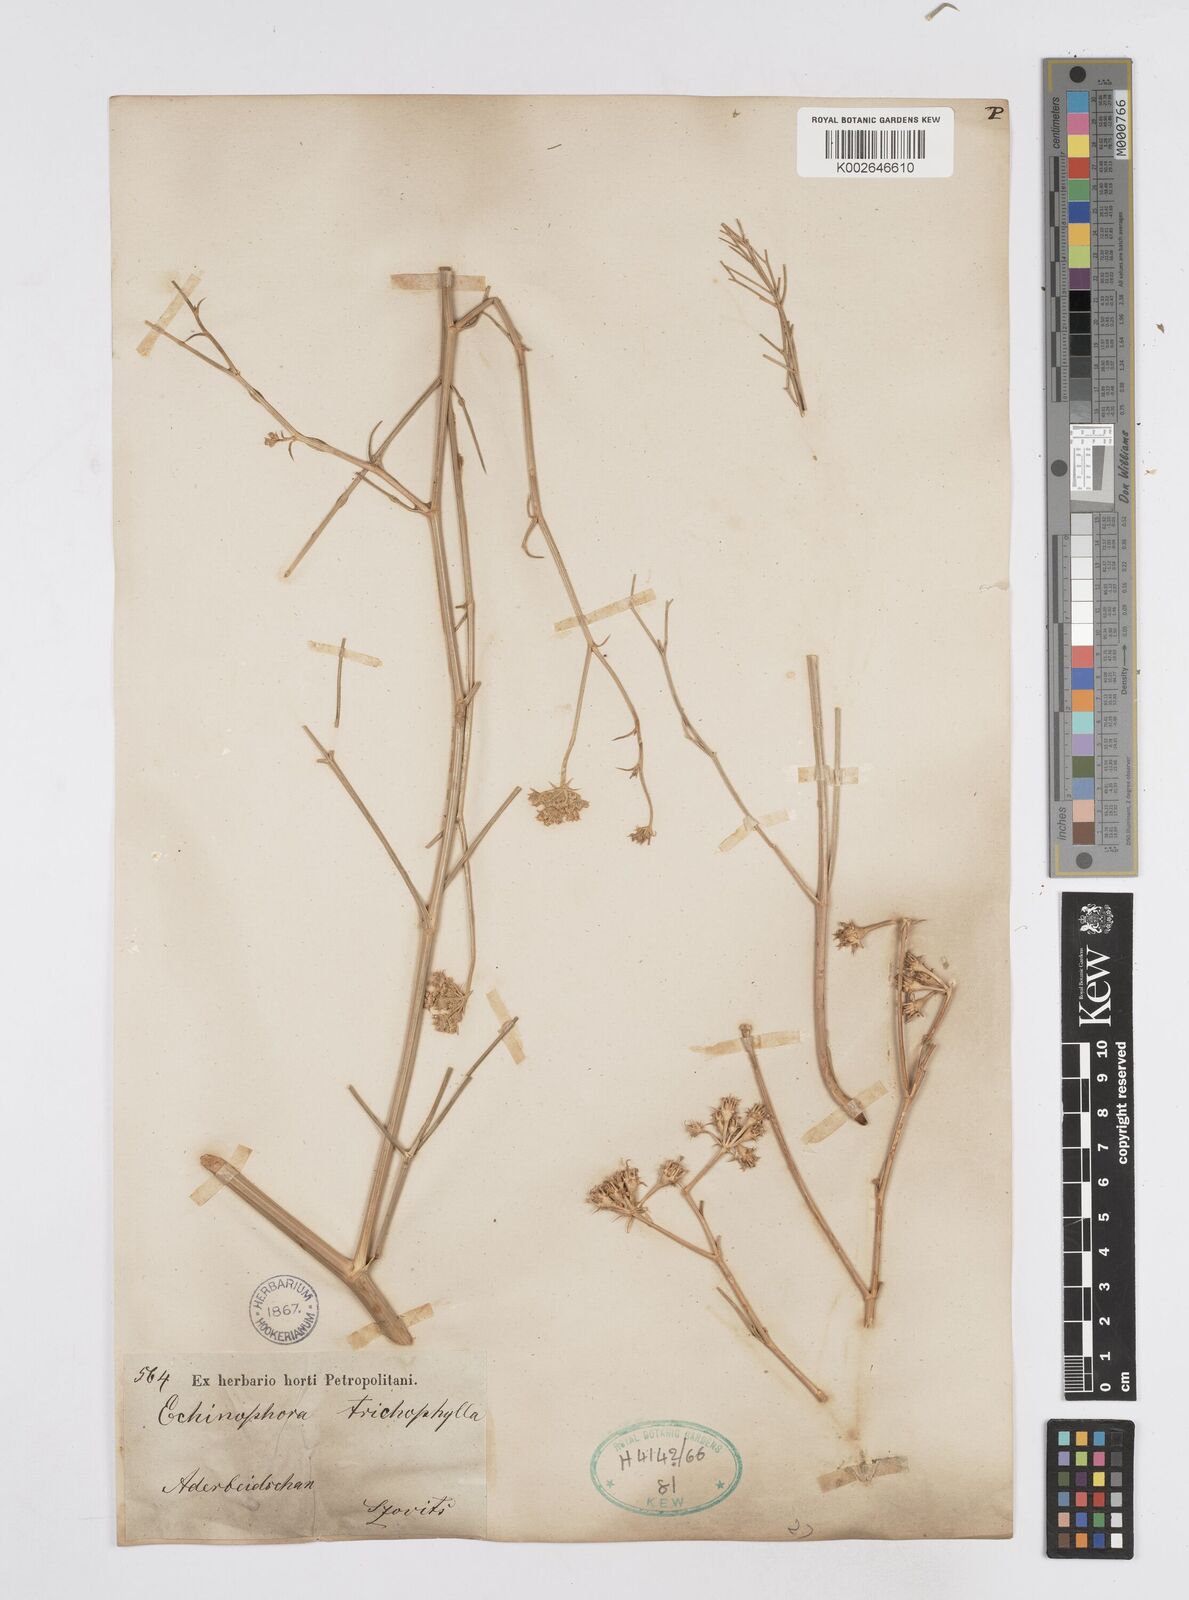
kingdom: Plantae
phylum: Tracheophyta
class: Magnoliopsida
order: Apiales
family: Apiaceae
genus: Echinophora
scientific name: Echinophora trichophylla
